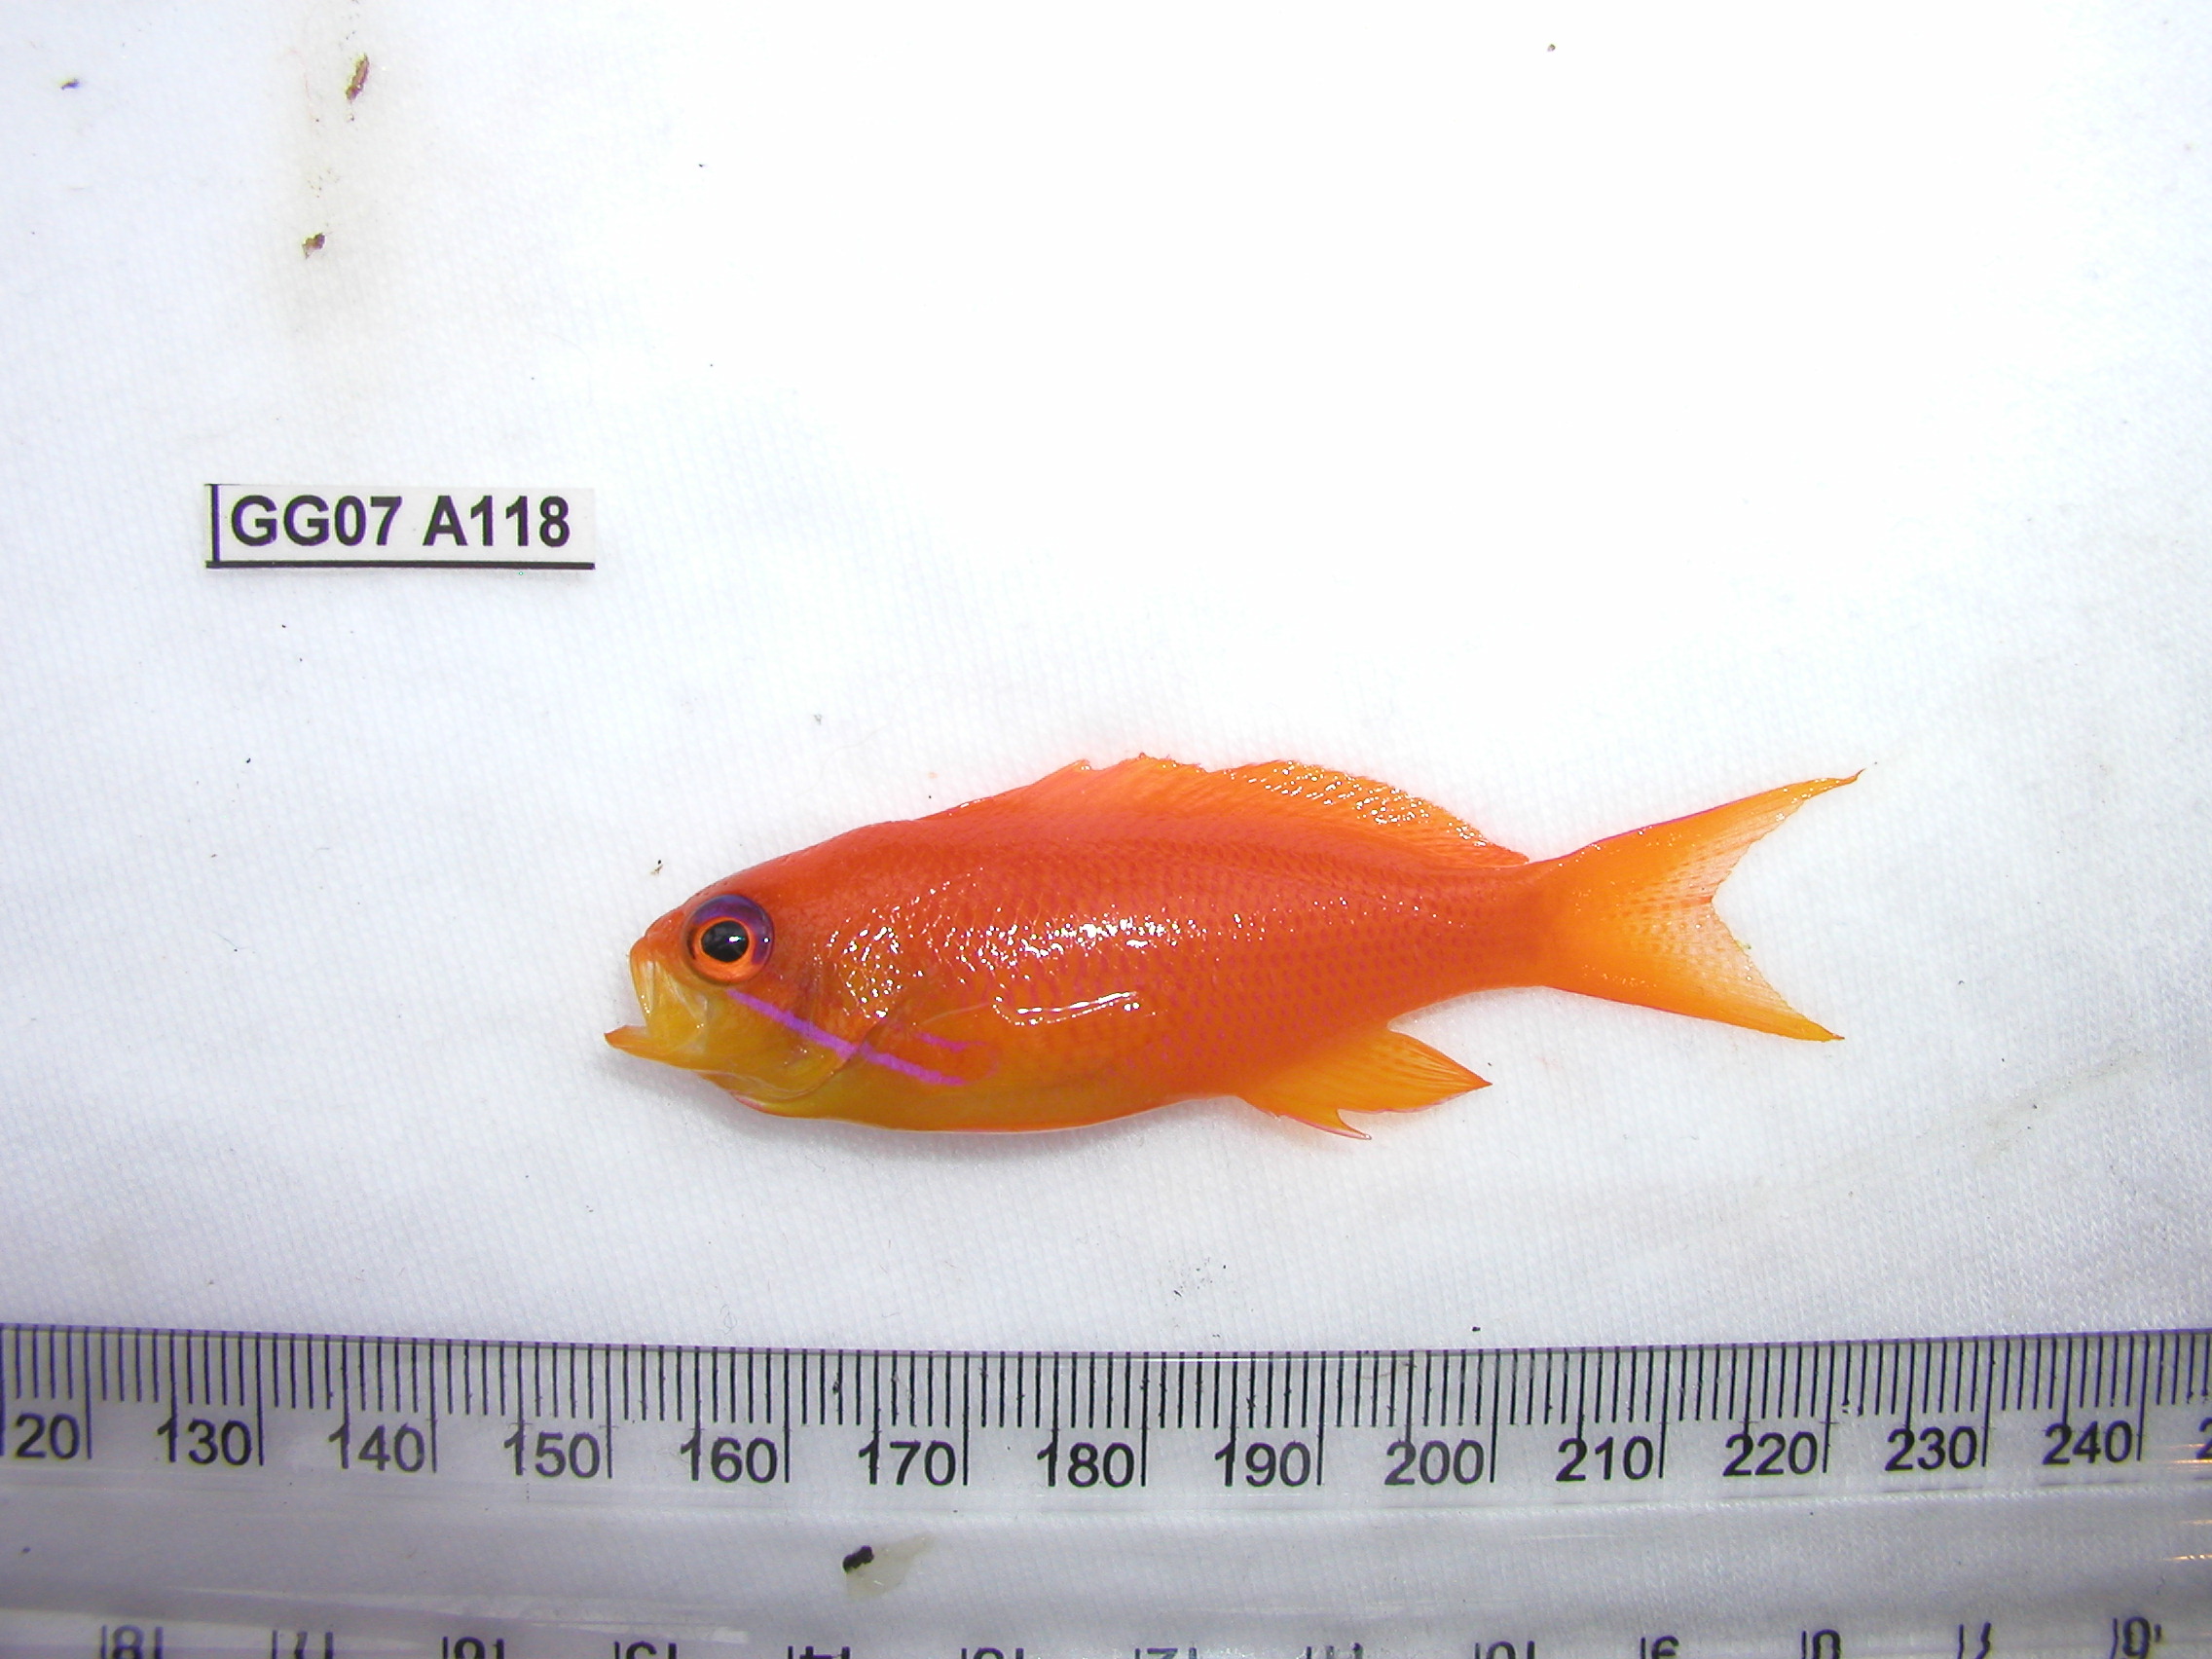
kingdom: Animalia
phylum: Chordata
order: Perciformes
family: Serranidae
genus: Pseudanthias
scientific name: Pseudanthias squamipinnis
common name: Scalefin anthias
